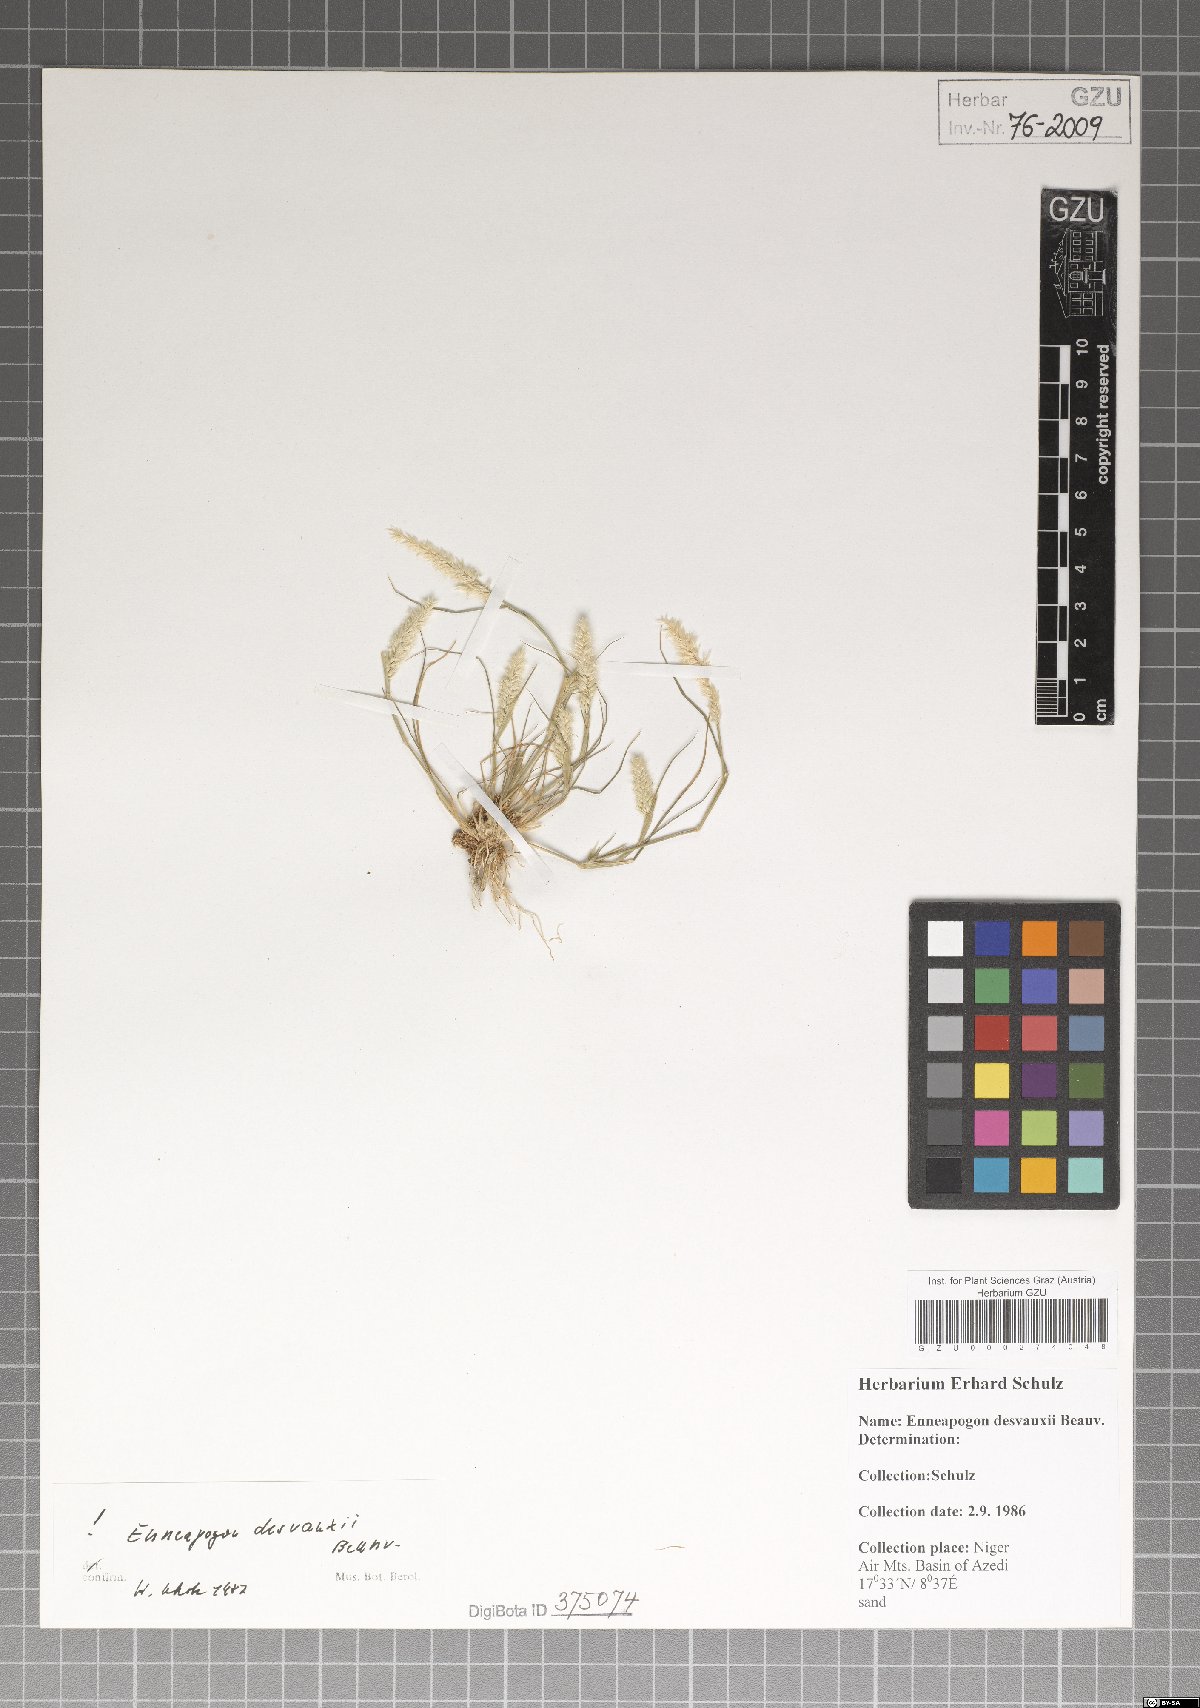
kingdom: Plantae
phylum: Tracheophyta
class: Liliopsida
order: Poales
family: Poaceae
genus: Enneapogon
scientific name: Enneapogon desvauxii
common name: Feather pappus grass
